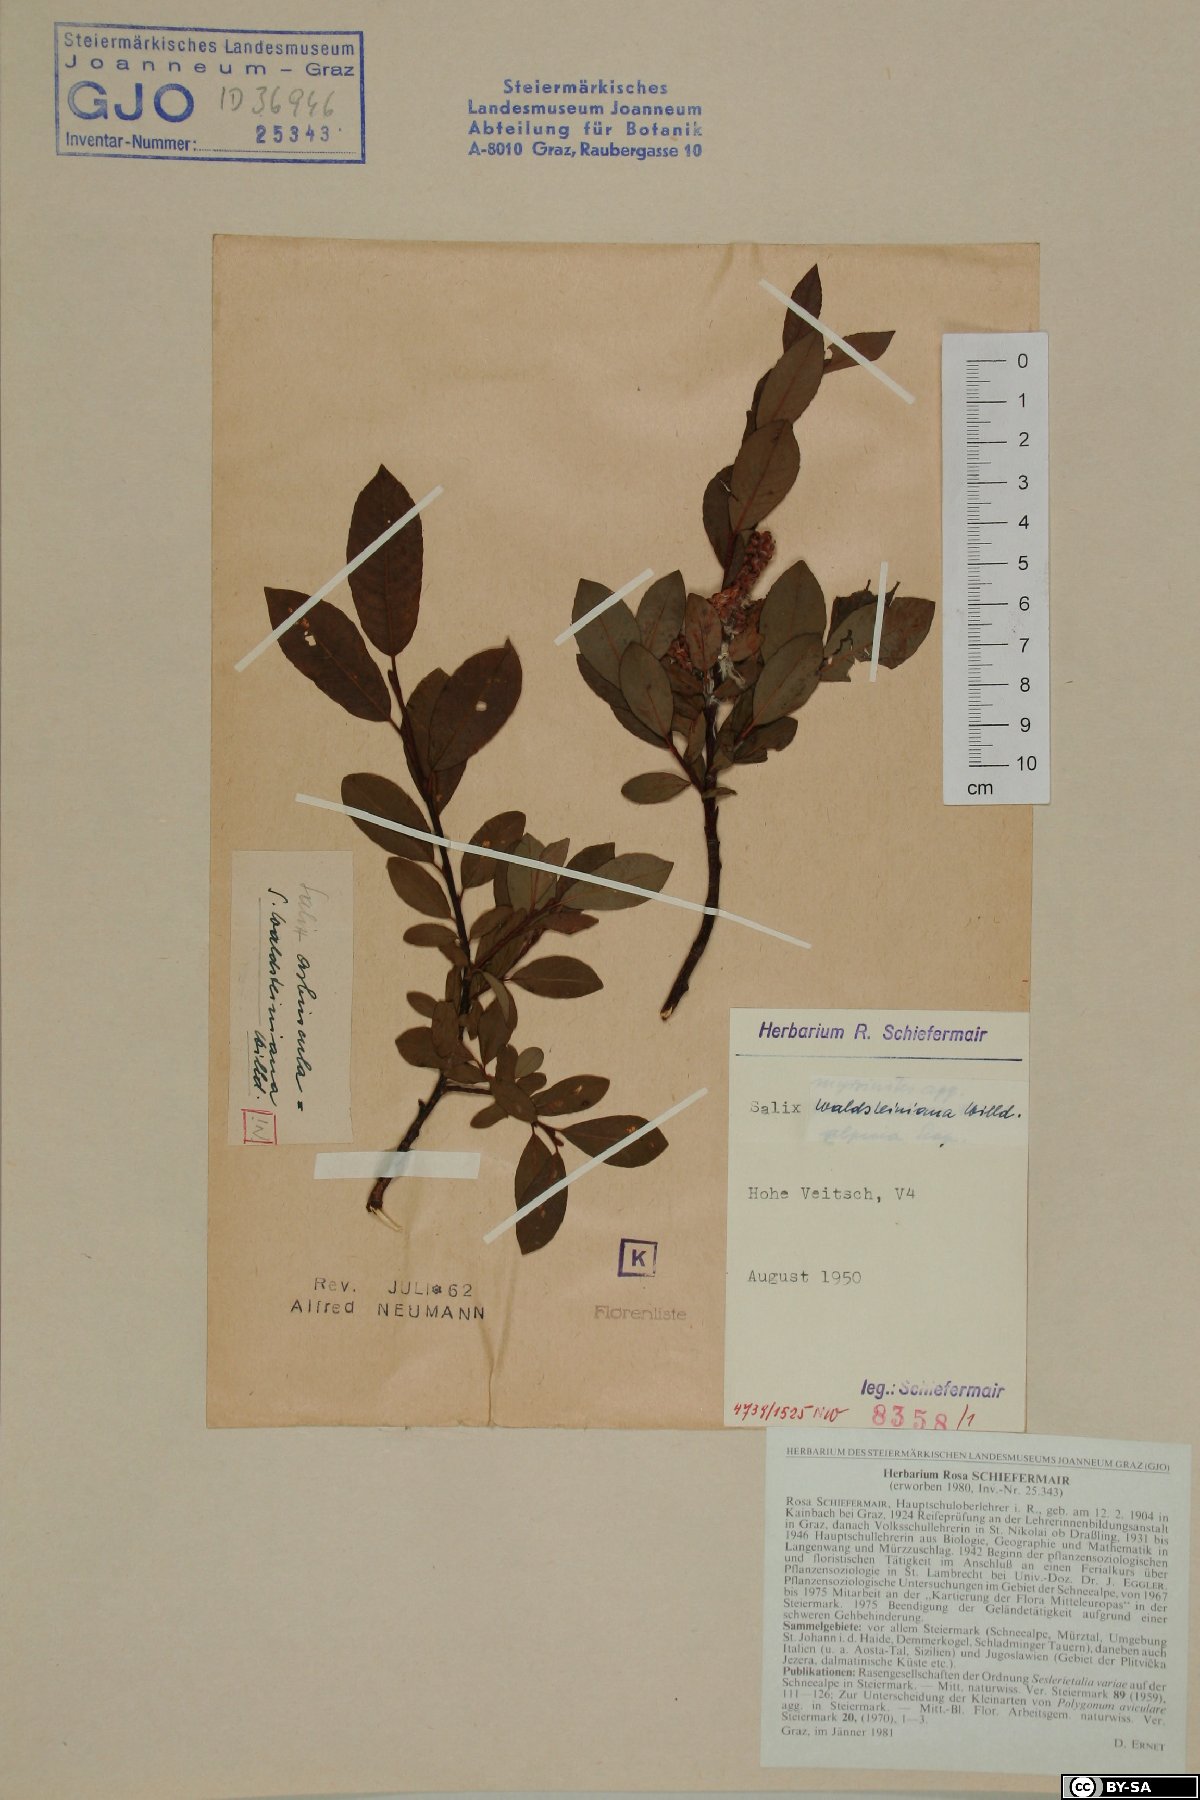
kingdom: Plantae
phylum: Tracheophyta
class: Magnoliopsida
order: Malpighiales
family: Salicaceae
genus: Salix
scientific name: Salix waldsteiniana
